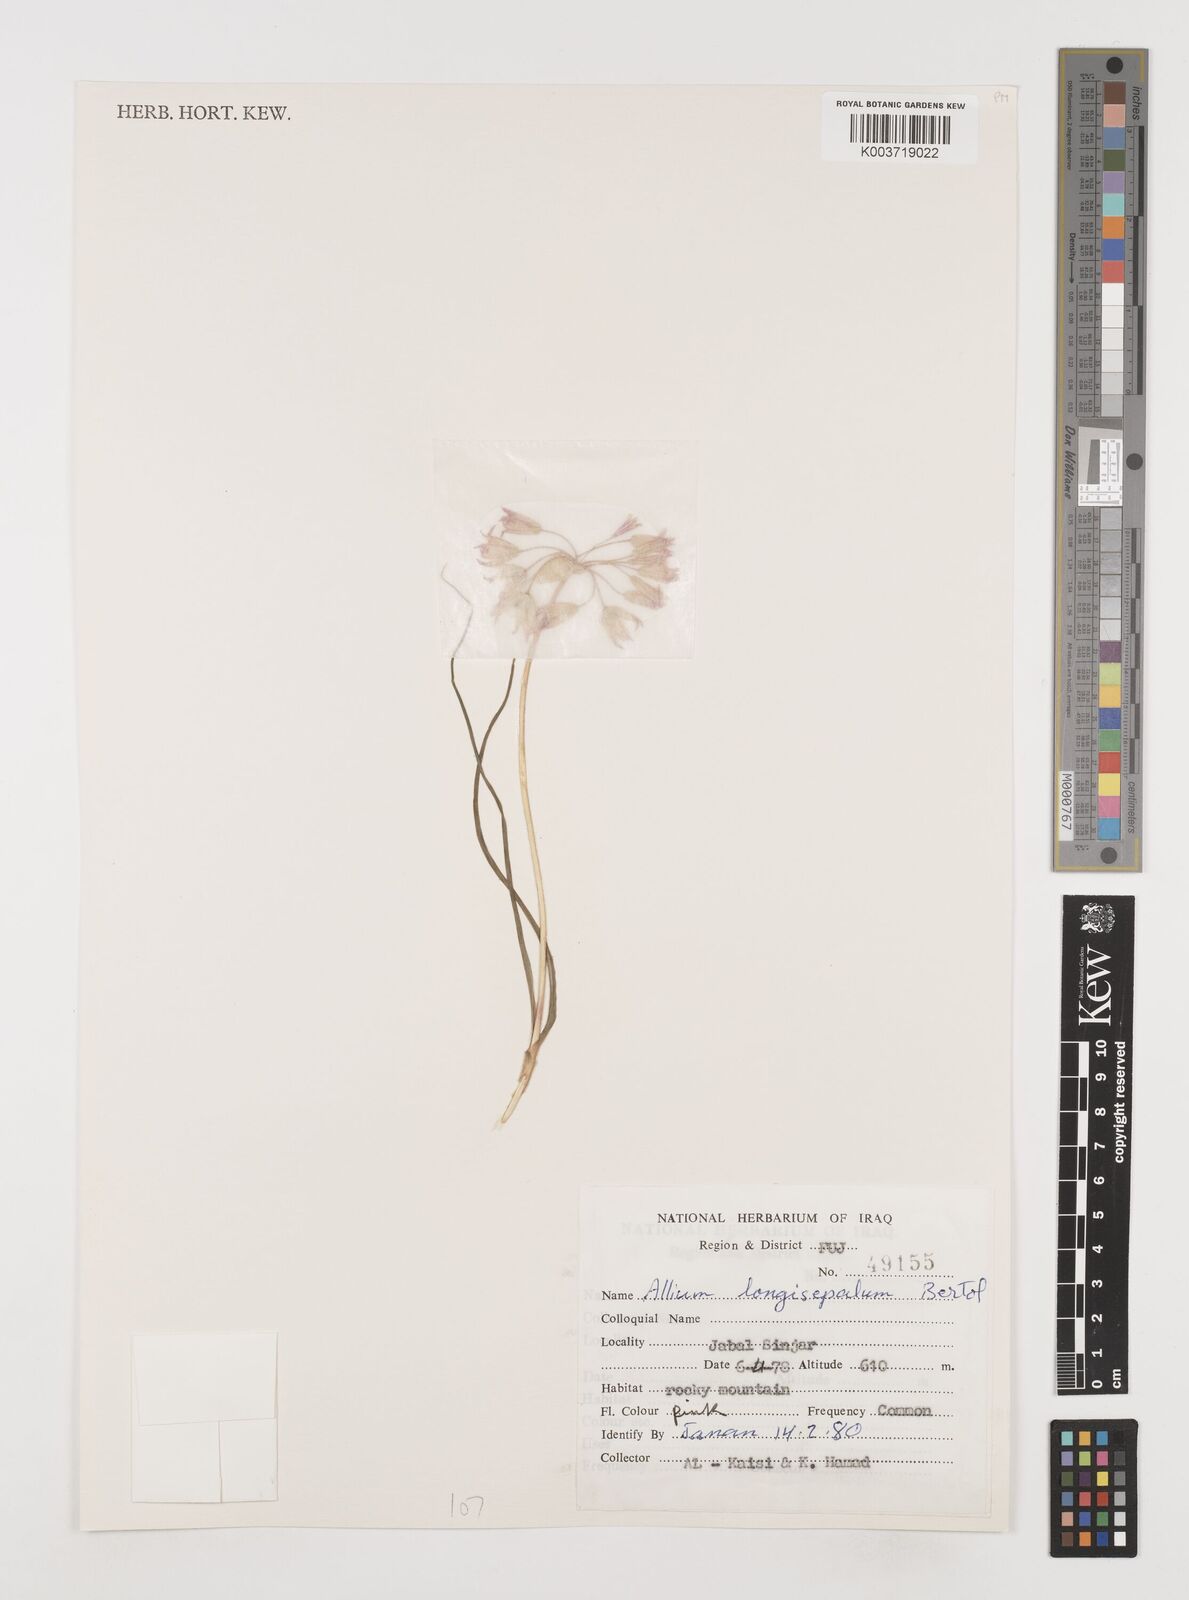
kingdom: Plantae
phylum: Tracheophyta
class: Liliopsida
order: Asparagales
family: Amaryllidaceae
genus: Allium
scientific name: Allium longisepalum
